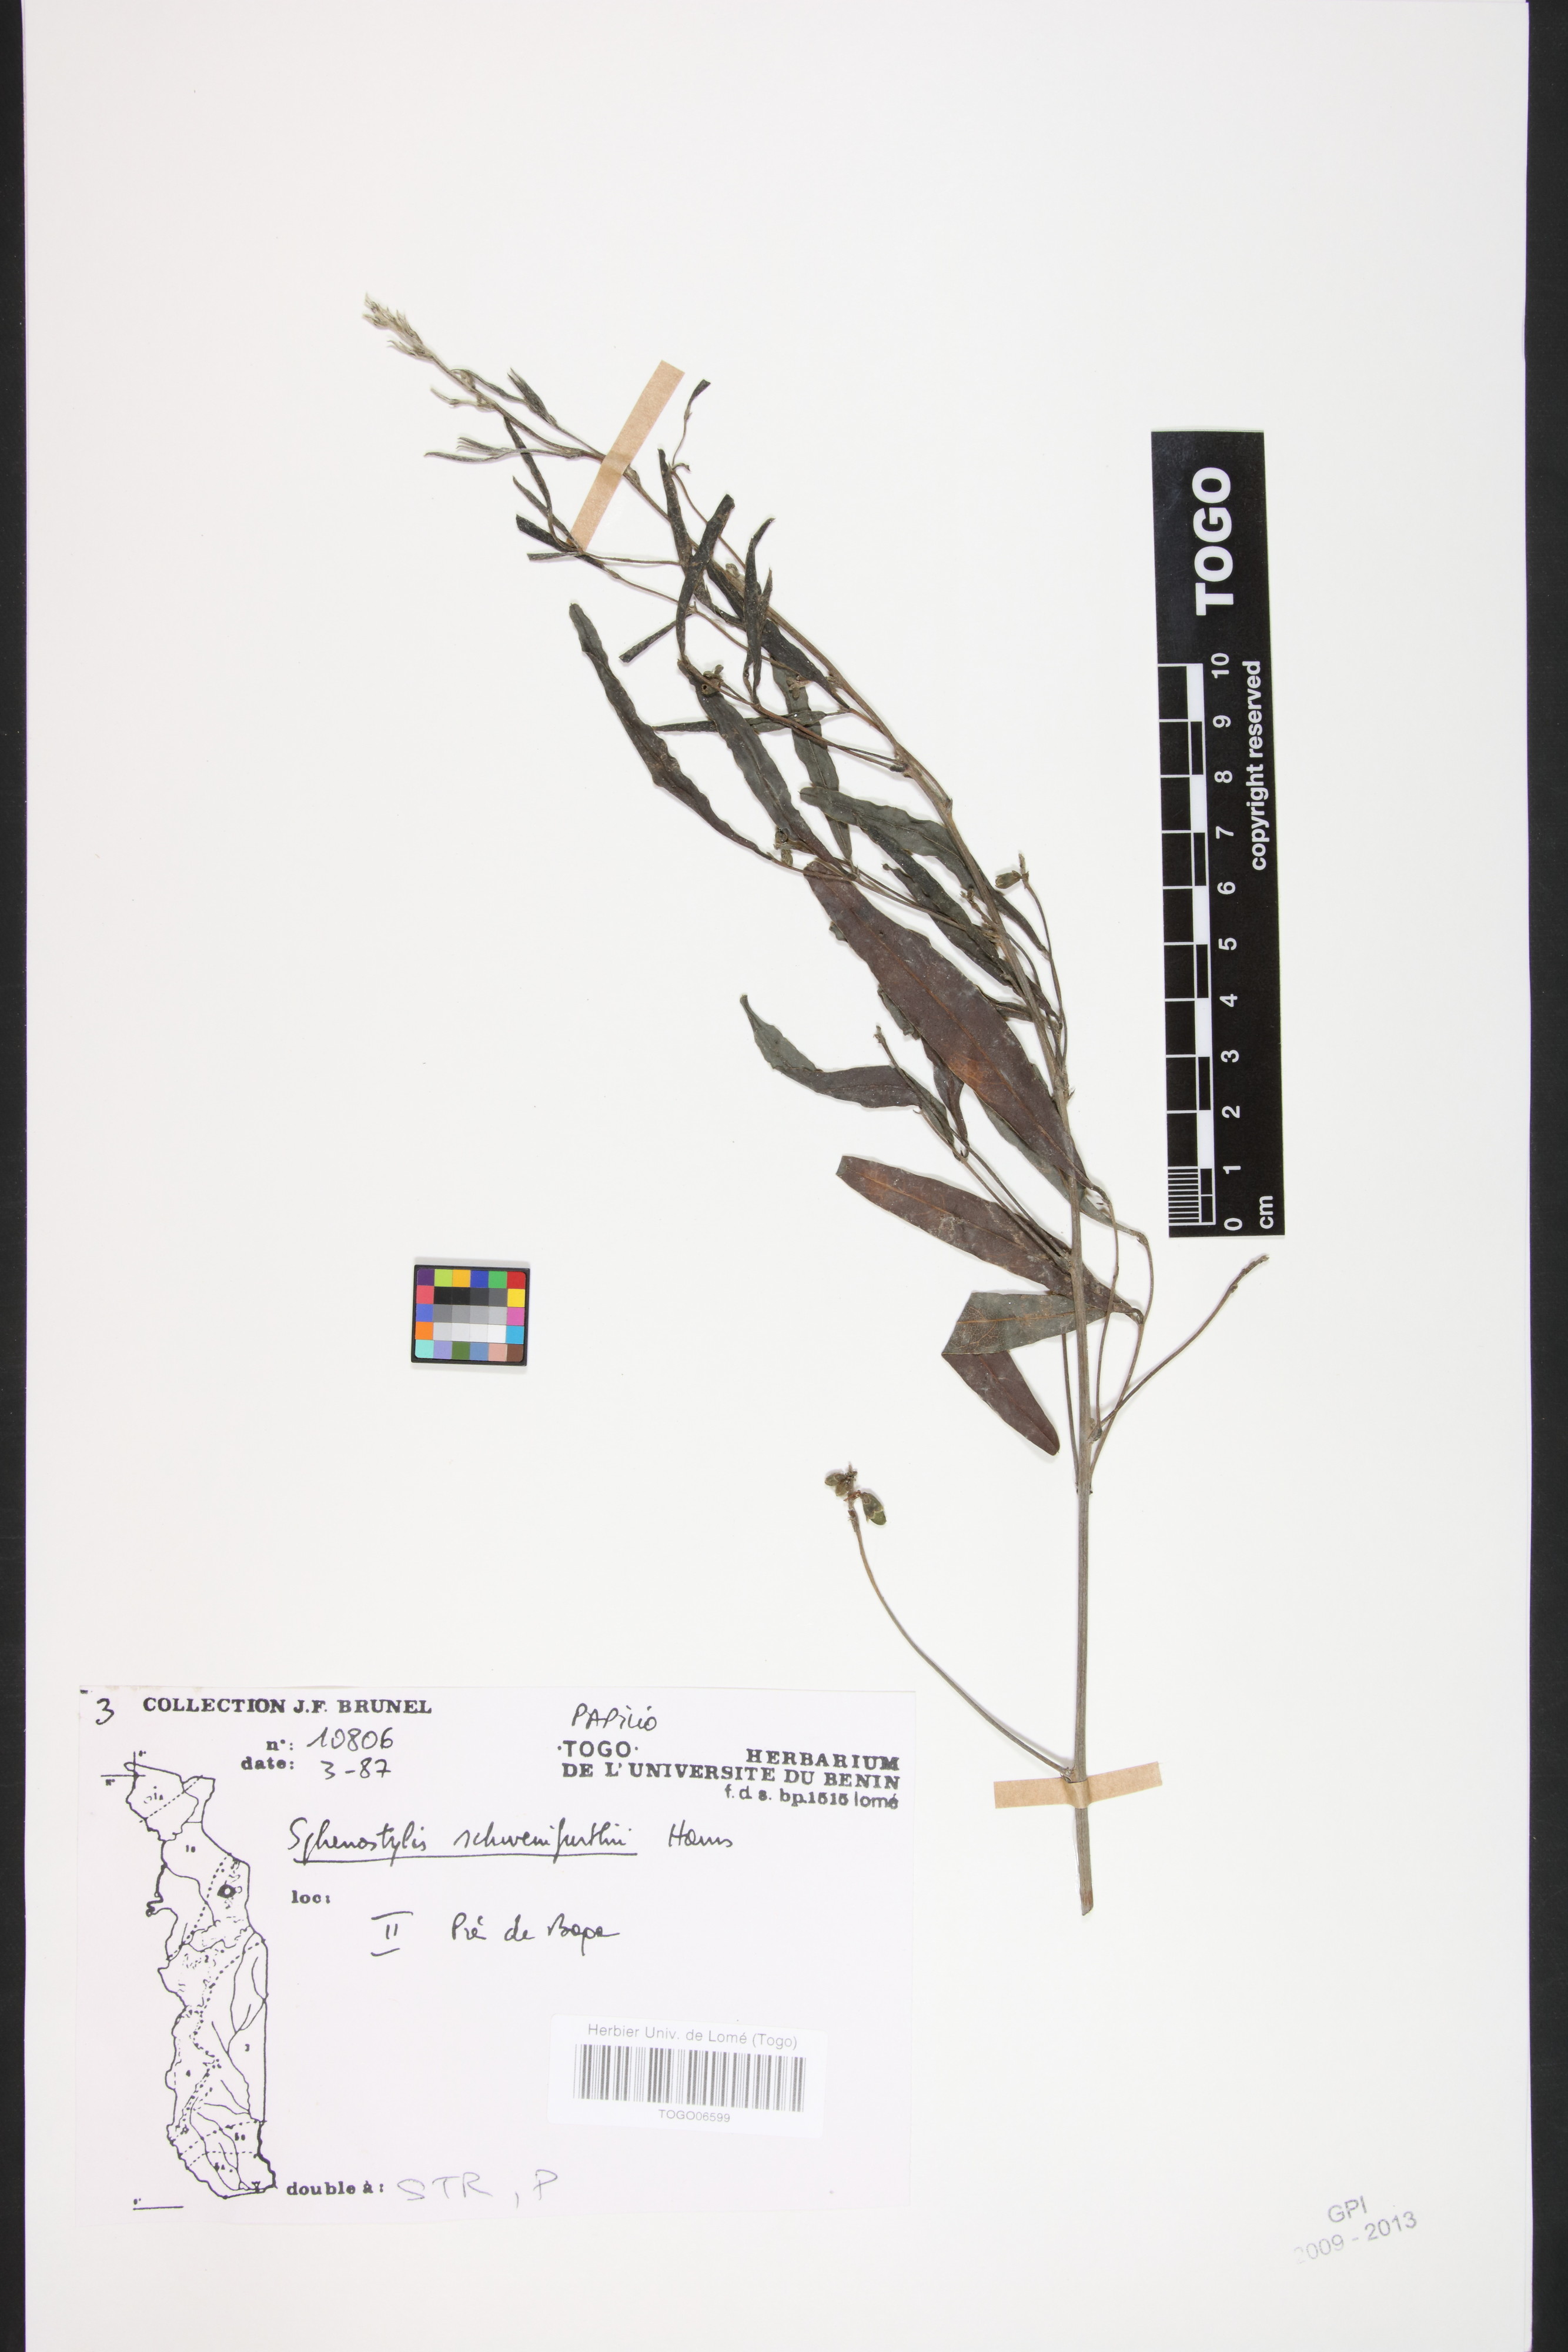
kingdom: Plantae
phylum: Tracheophyta
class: Magnoliopsida
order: Fabales
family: Fabaceae
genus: Sphenostylis
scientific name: Sphenostylis schweinfurthii
